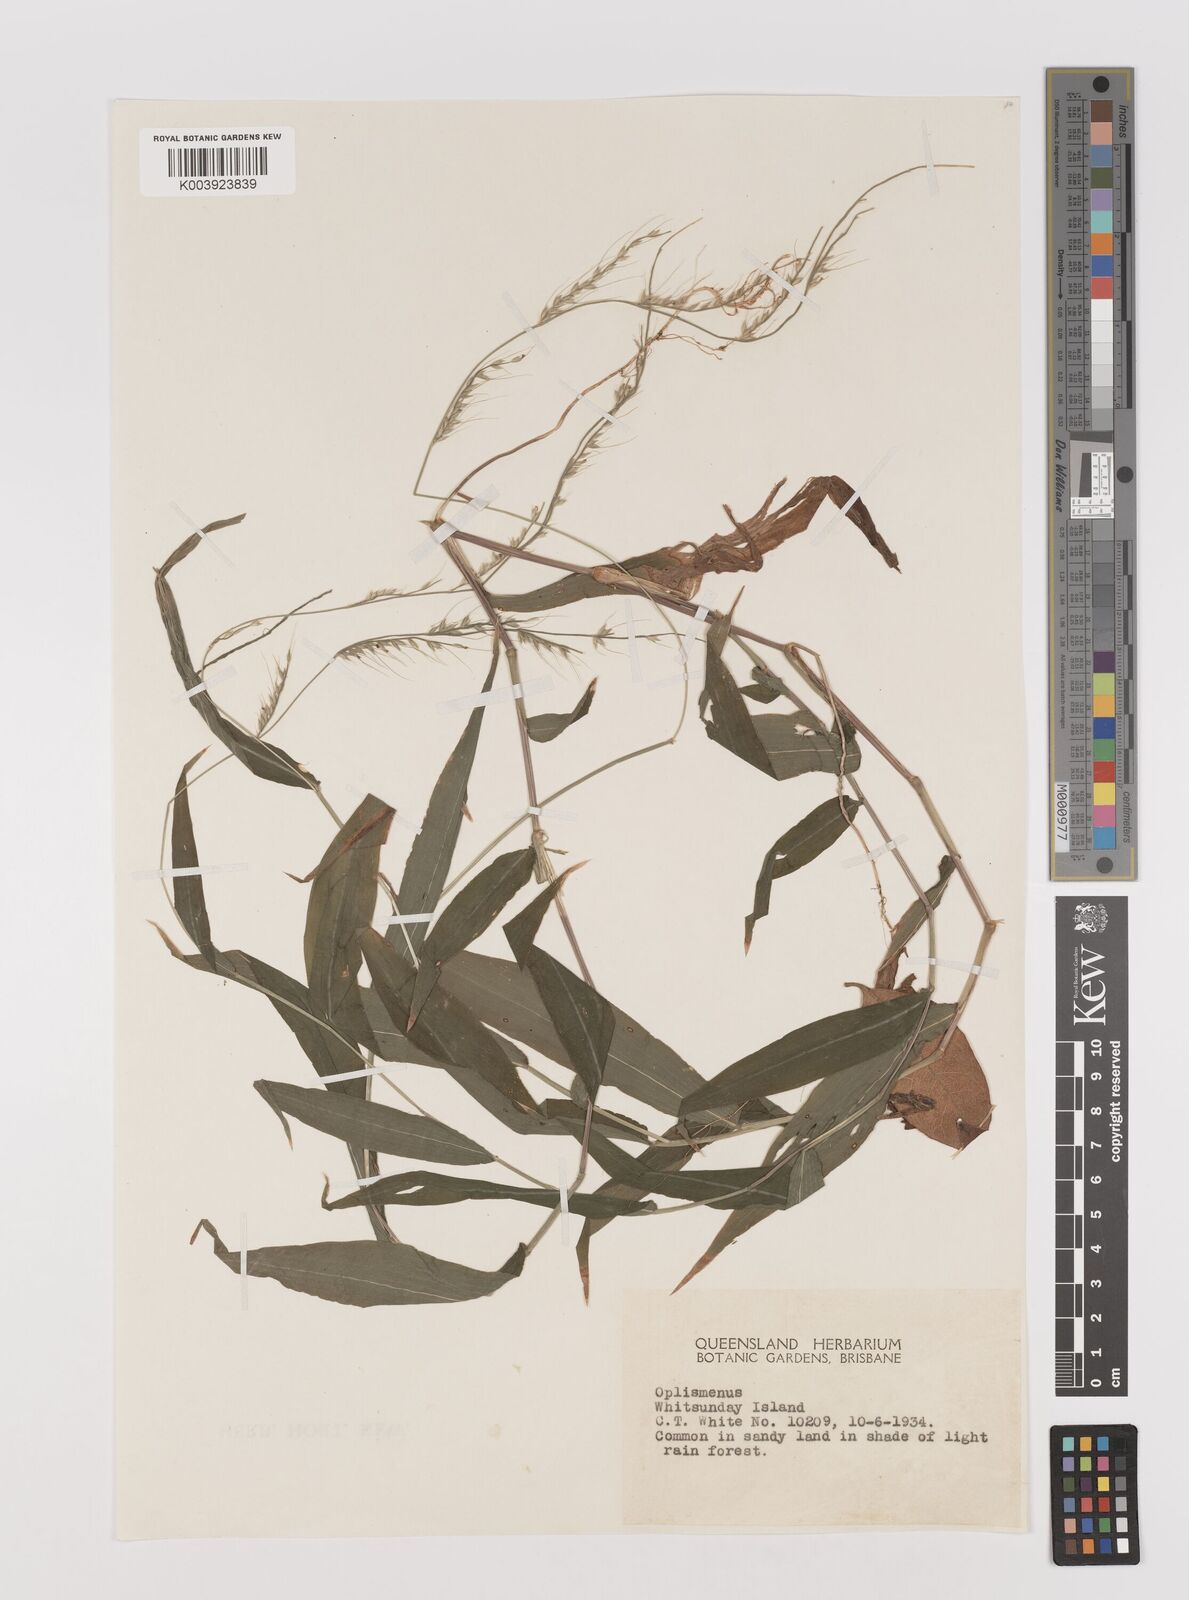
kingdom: Plantae
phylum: Tracheophyta
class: Liliopsida
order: Poales
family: Poaceae
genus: Oplismenus
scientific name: Oplismenus compositus
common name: Running mountain grass
